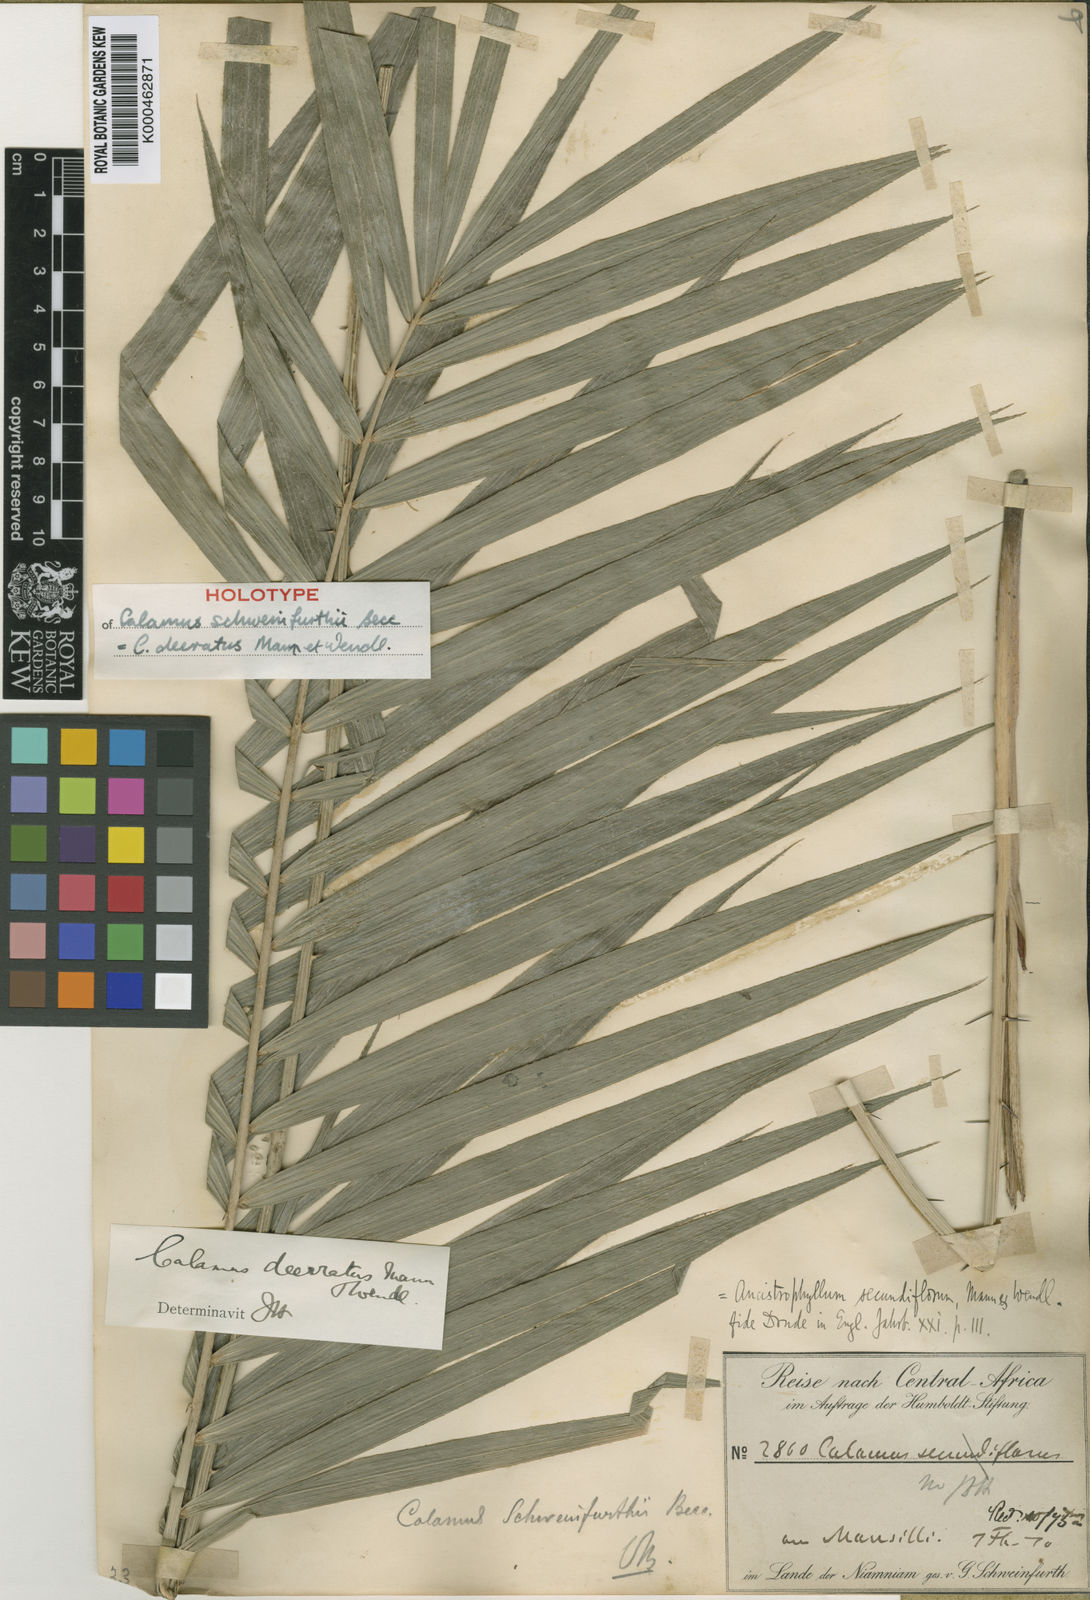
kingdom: Plantae
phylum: Tracheophyta
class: Liliopsida
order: Arecales
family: Arecaceae
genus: Calamus
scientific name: Calamus deerratus
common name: Rattan
